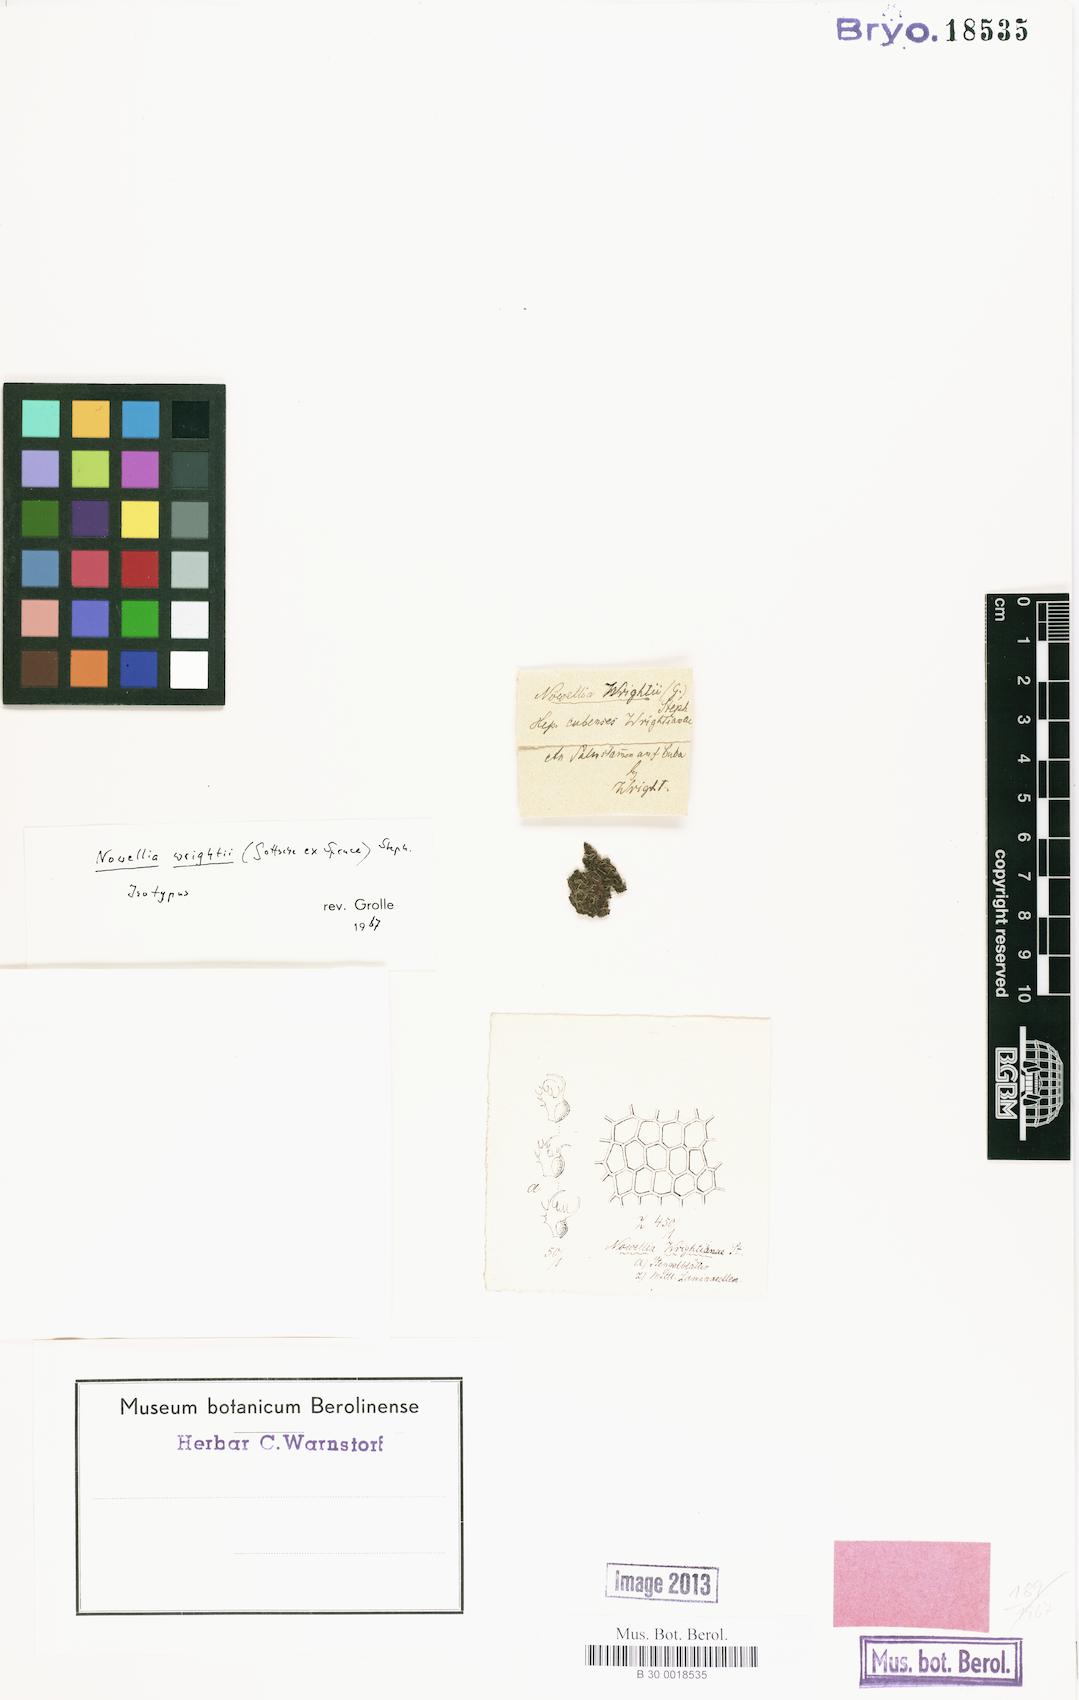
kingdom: Plantae
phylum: Marchantiophyta
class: Jungermanniopsida
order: Jungermanniales
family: Cephaloziaceae
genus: Nowellia
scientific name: Nowellia wrightii
